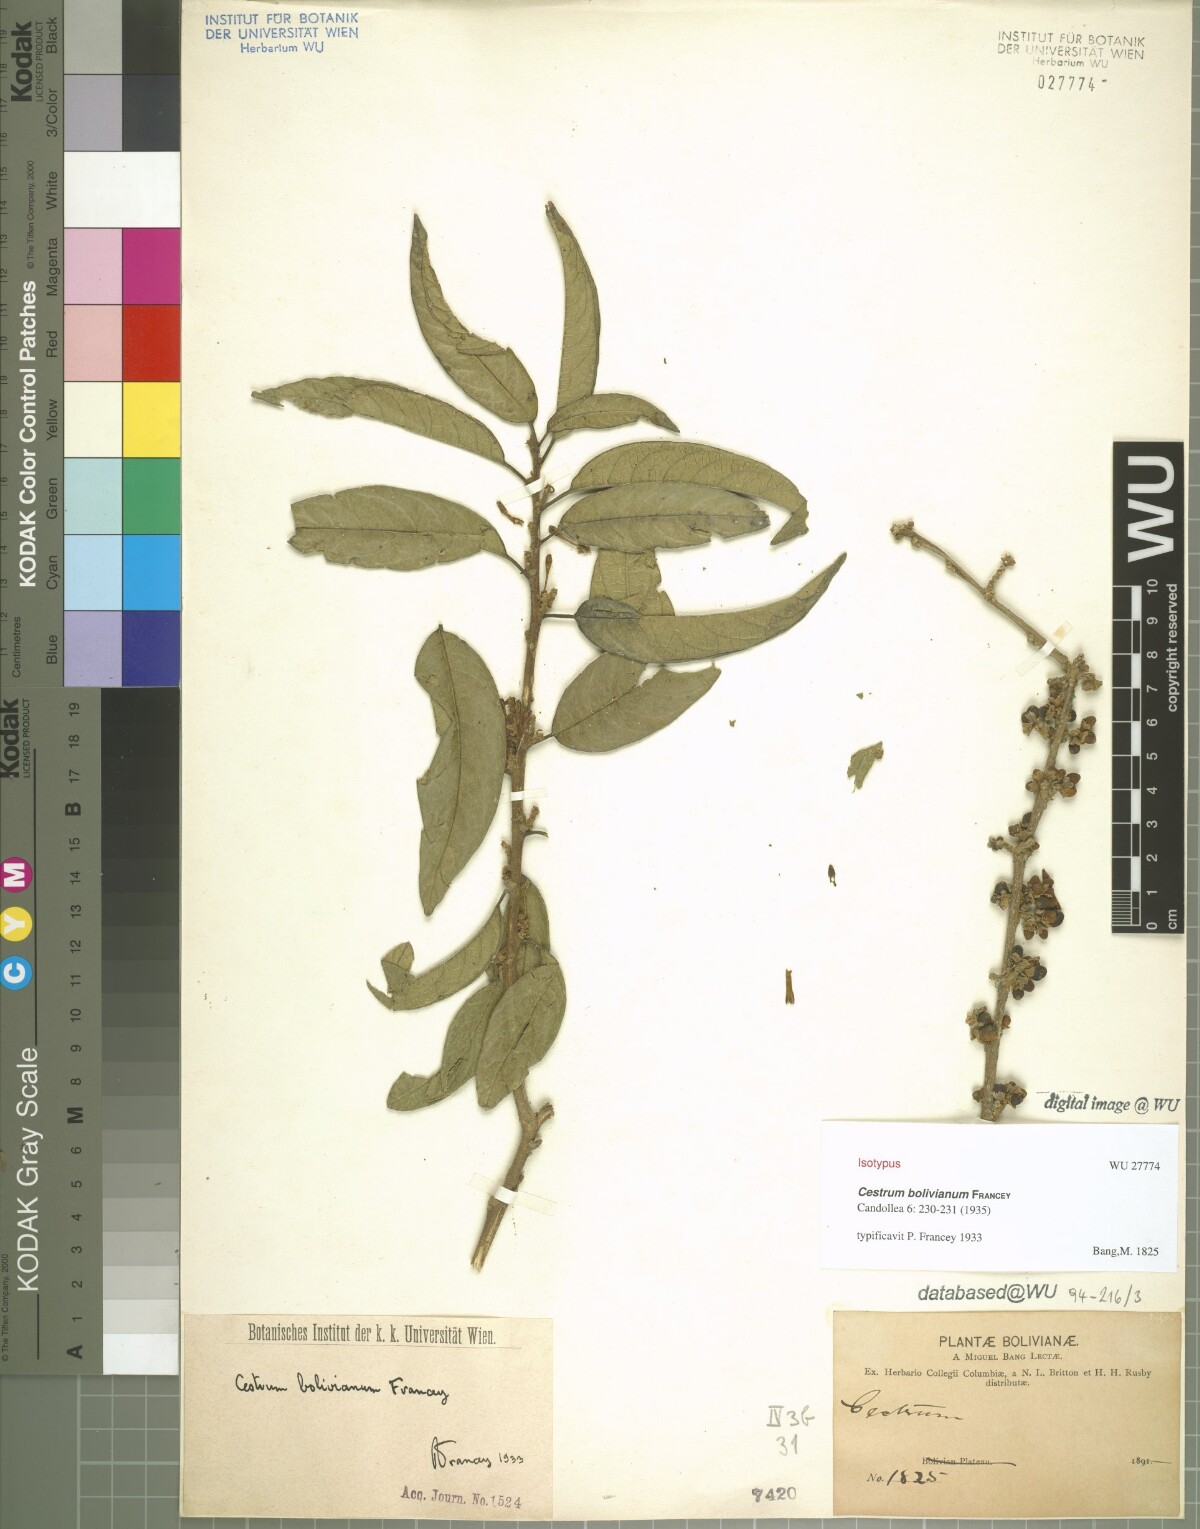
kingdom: Plantae
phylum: Tracheophyta
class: Magnoliopsida
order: Solanales
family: Solanaceae
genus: Cestrum
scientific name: Cestrum conglomeratum
